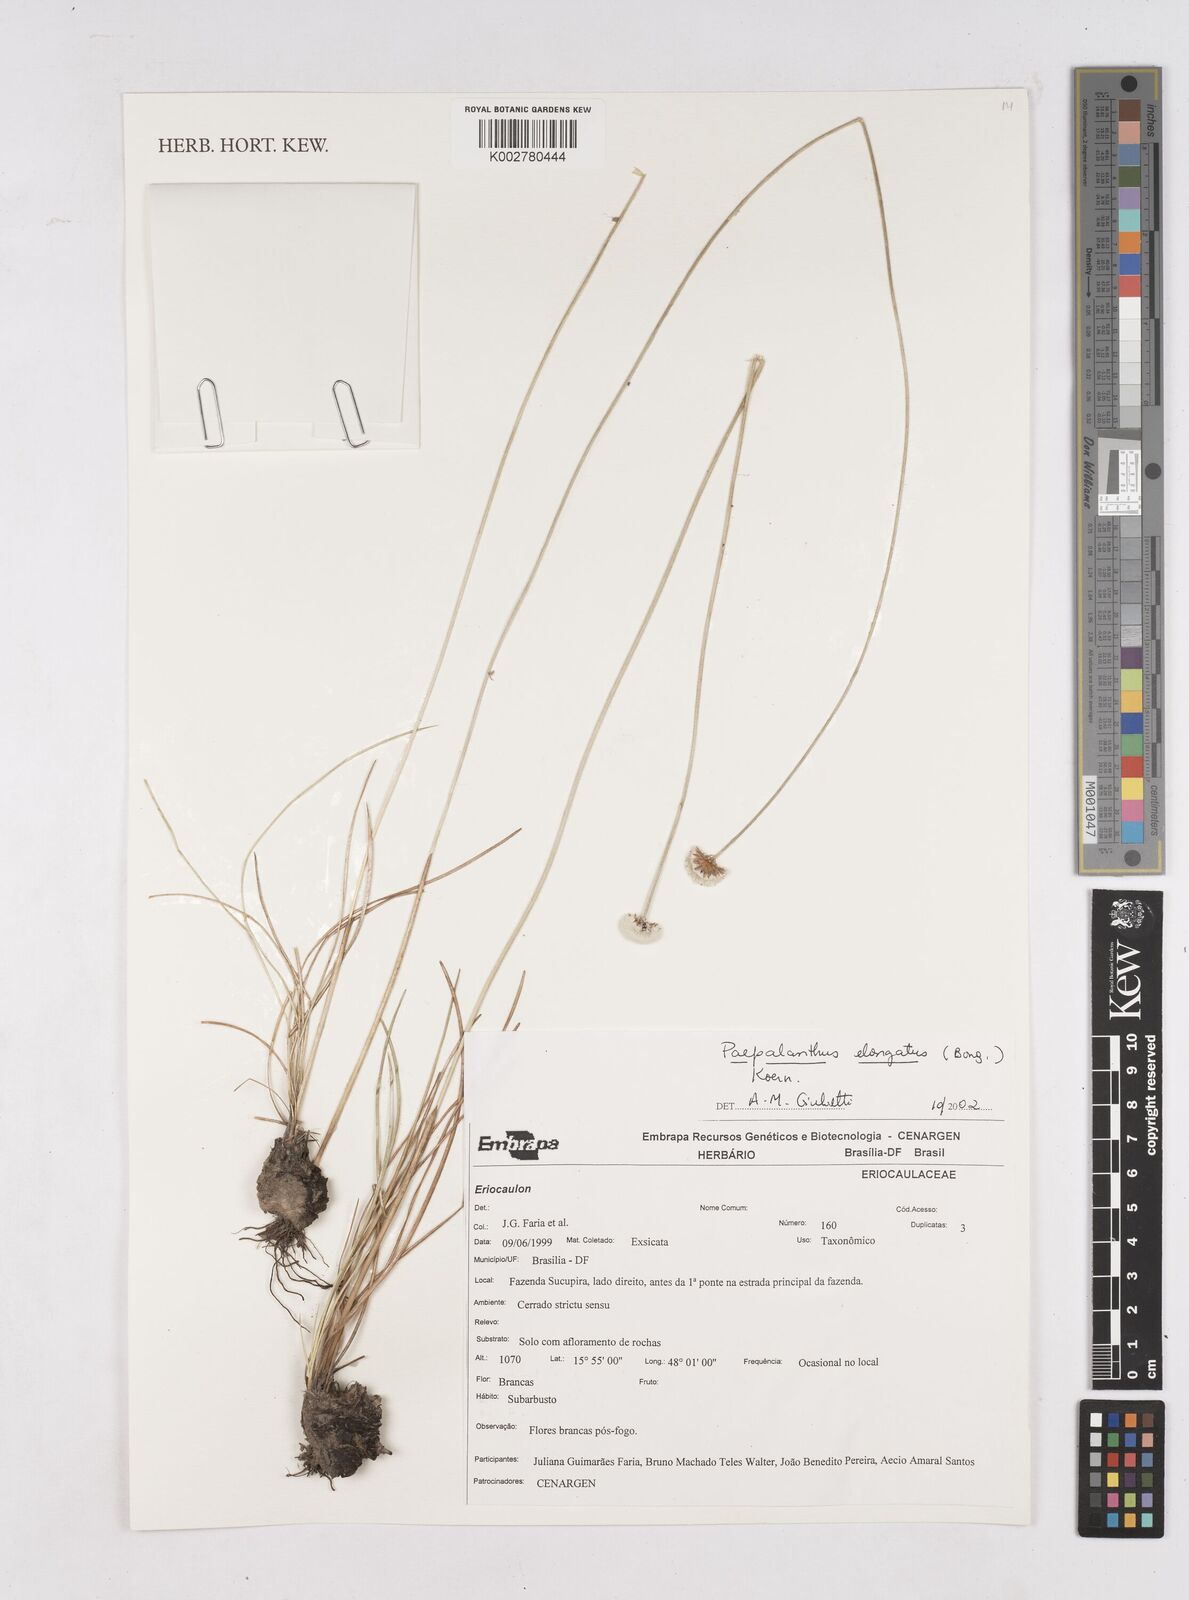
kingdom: Plantae
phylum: Tracheophyta
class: Liliopsida
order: Poales
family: Eriocaulaceae
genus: Paepalanthus
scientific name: Paepalanthus elongatus
